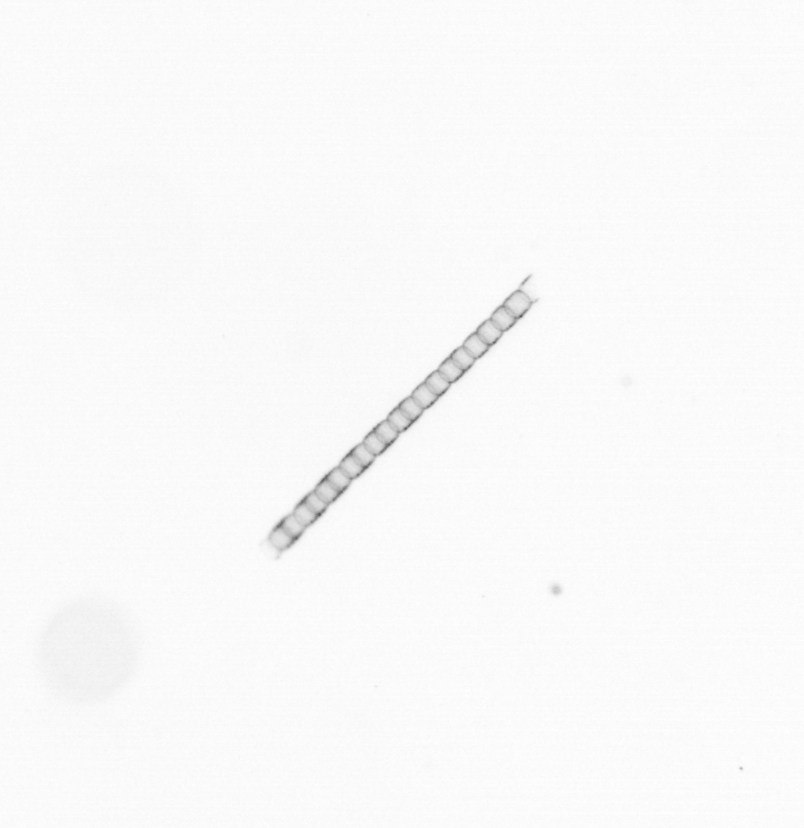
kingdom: Chromista
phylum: Ochrophyta
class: Bacillariophyceae
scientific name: Bacillariophyceae
